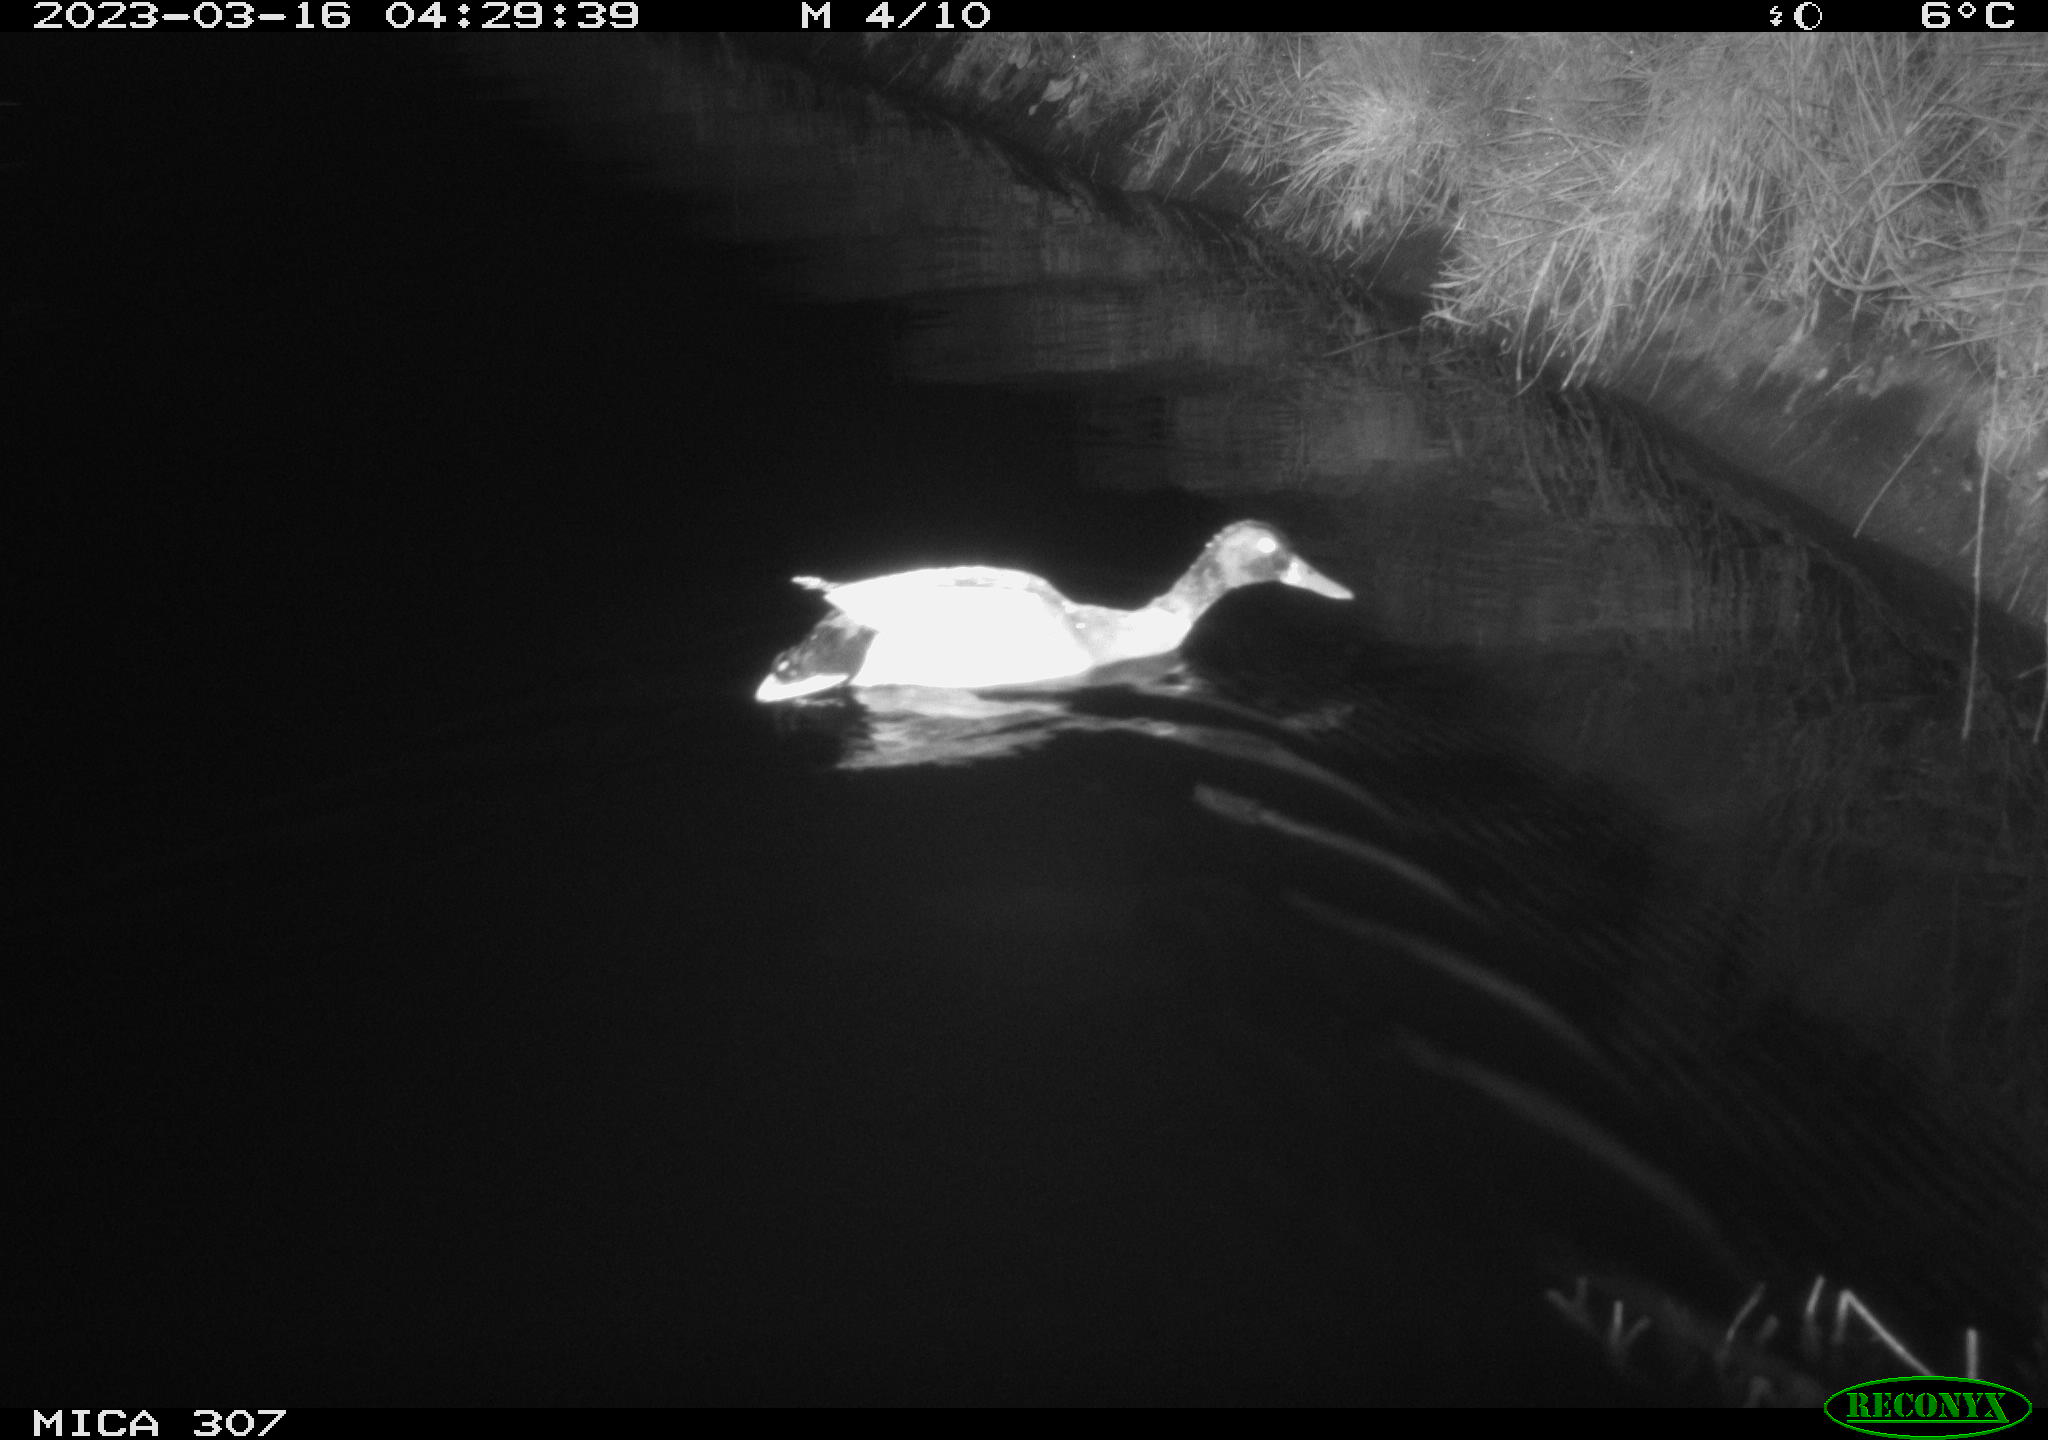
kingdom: Animalia
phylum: Chordata
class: Aves
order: Anseriformes
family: Anatidae
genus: Anas
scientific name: Anas
